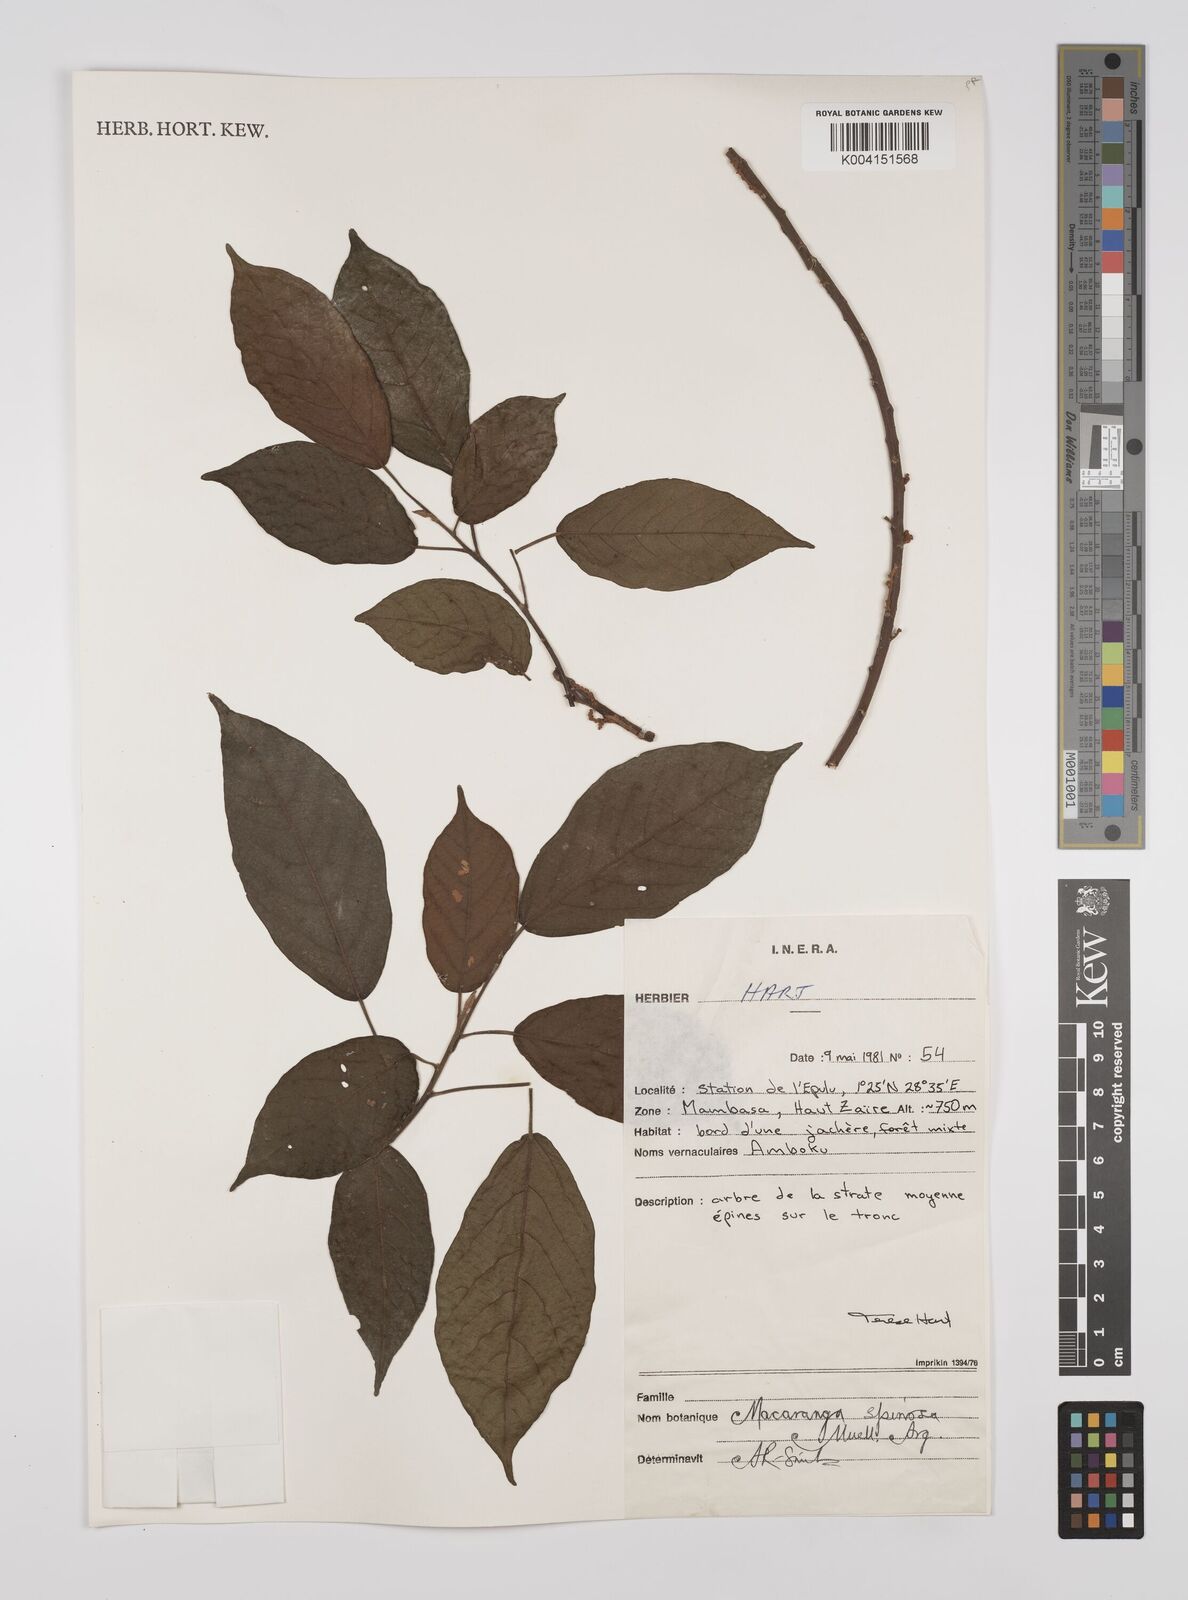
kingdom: Plantae
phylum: Tracheophyta
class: Magnoliopsida
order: Malpighiales
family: Euphorbiaceae
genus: Macaranga
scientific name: Macaranga spinosa
